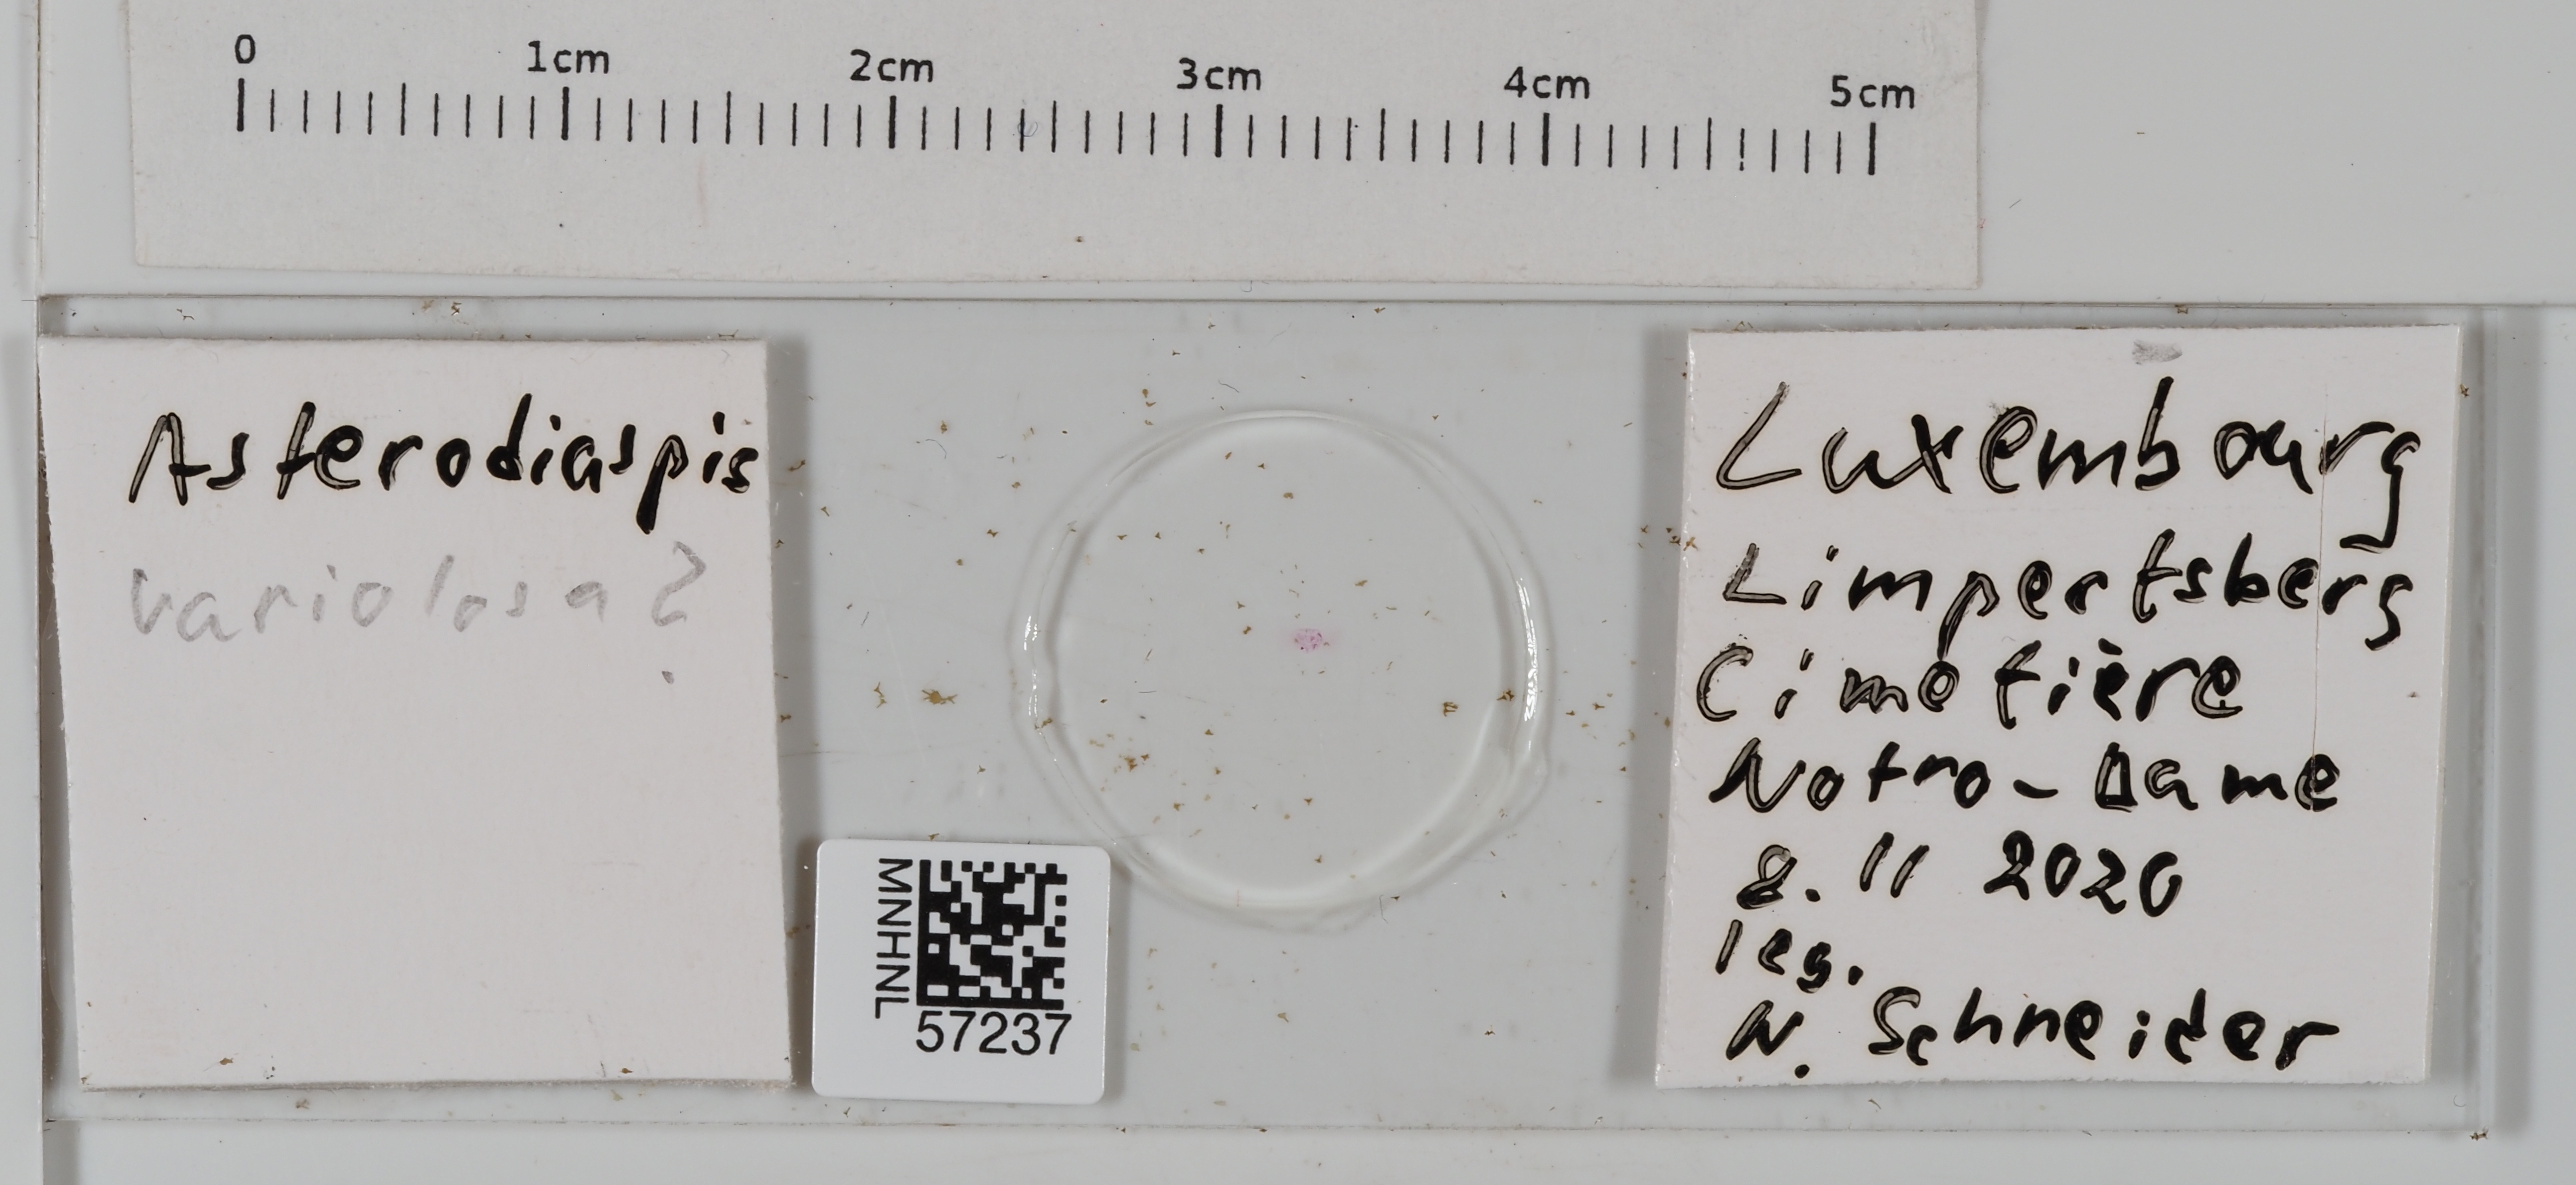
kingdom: Animalia
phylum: Arthropoda
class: Insecta
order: Hemiptera
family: Asterolecaniidae
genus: Asterodiaspis
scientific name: Asterodiaspis variolosa
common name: Golden oak scale
